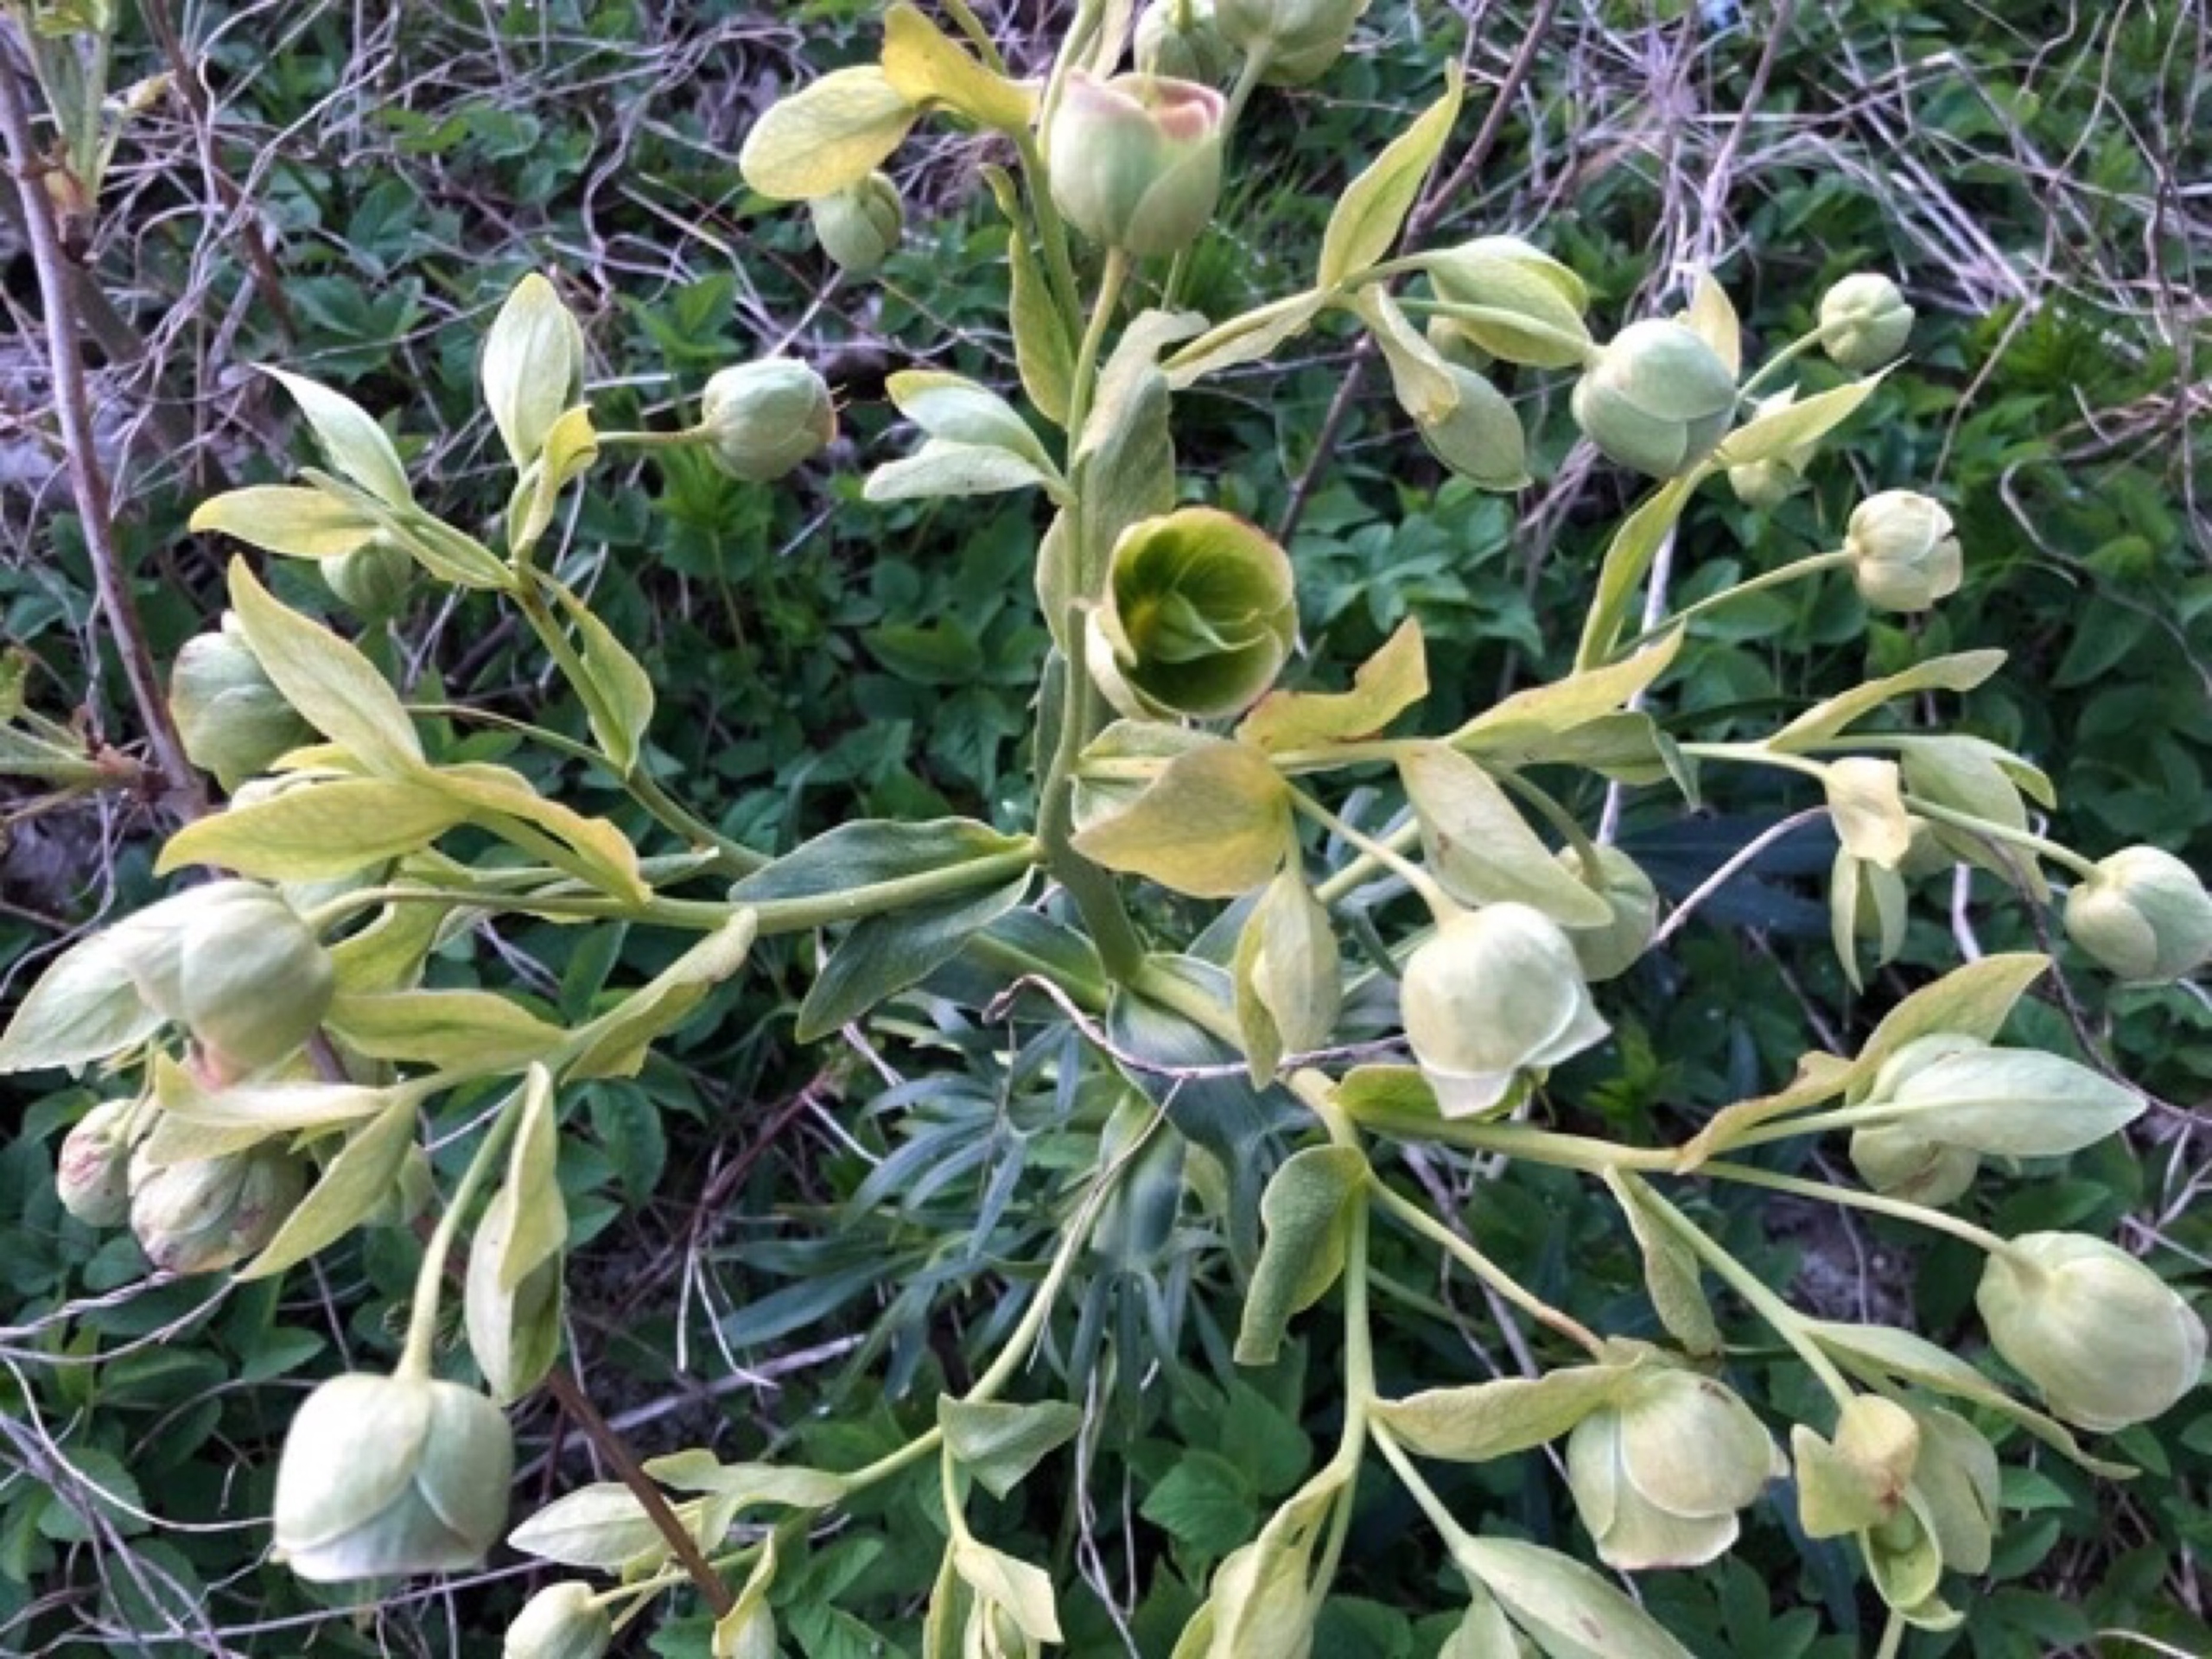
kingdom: Plantae
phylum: Tracheophyta
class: Magnoliopsida
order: Ranunculales
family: Ranunculaceae
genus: Helleborus
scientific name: Helleborus foetidus
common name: Stinkende julerose
